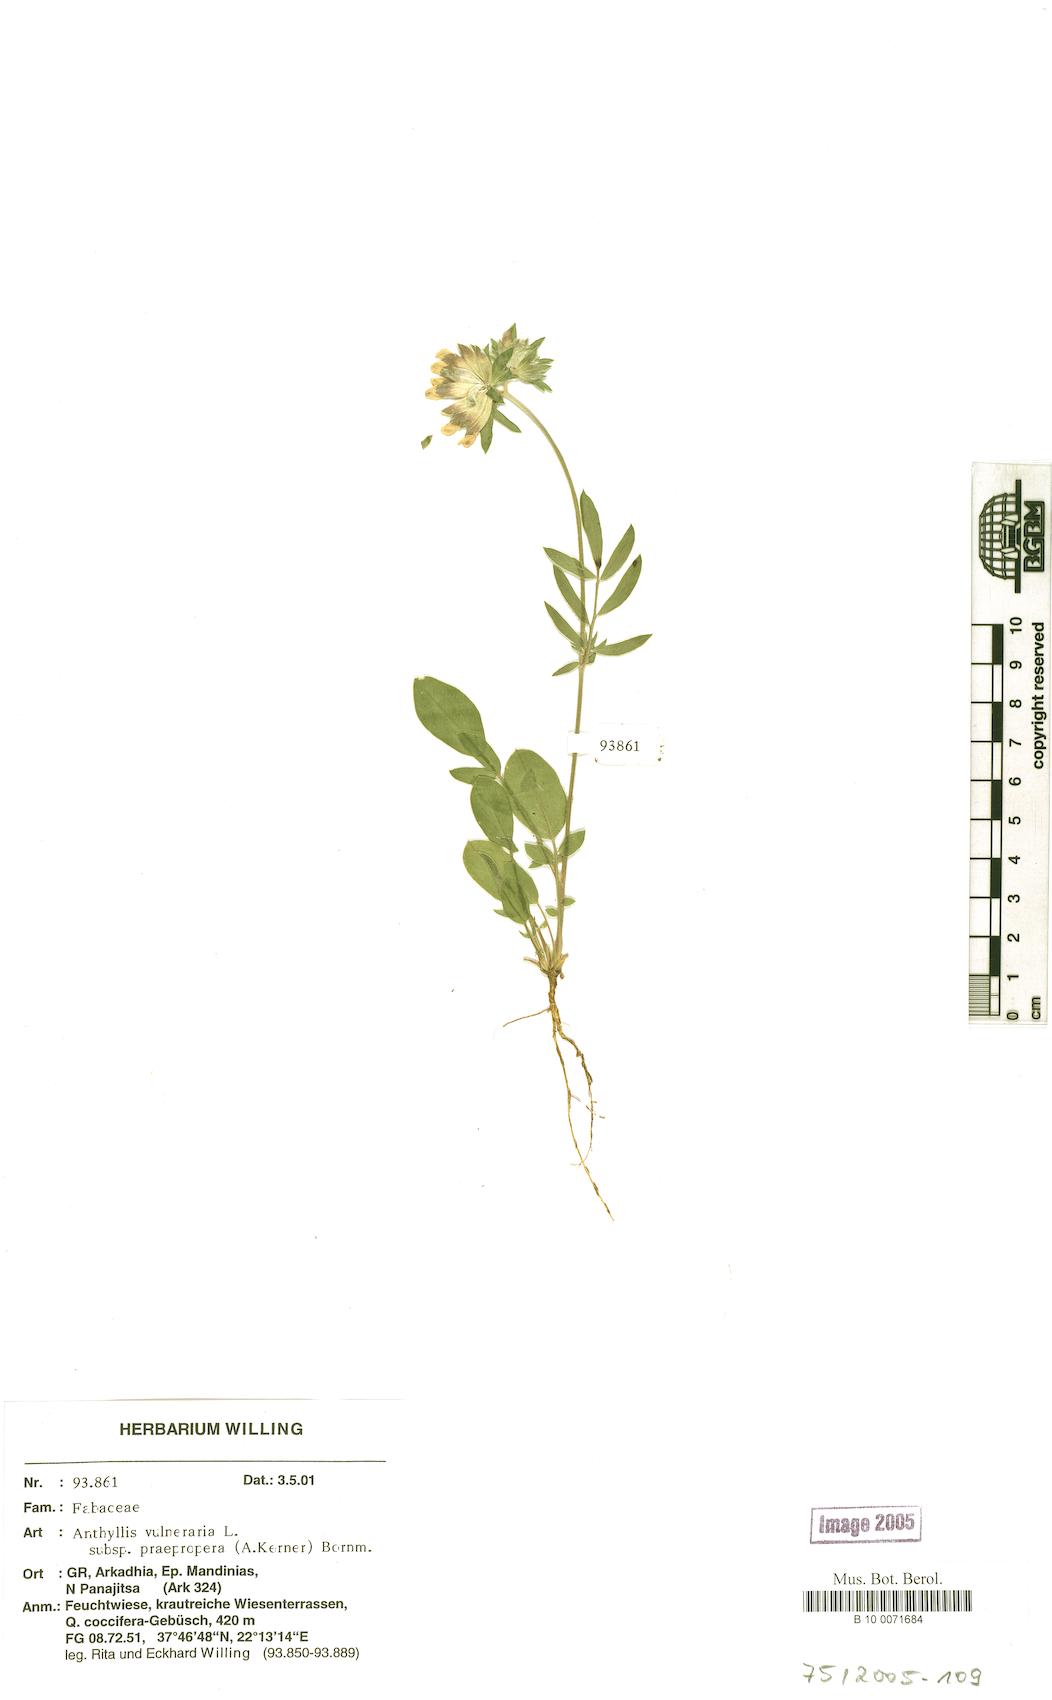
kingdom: Plantae
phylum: Tracheophyta
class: Magnoliopsida
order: Fabales
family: Fabaceae
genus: Anthyllis
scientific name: Anthyllis vulneraria
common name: Kidney vetch
